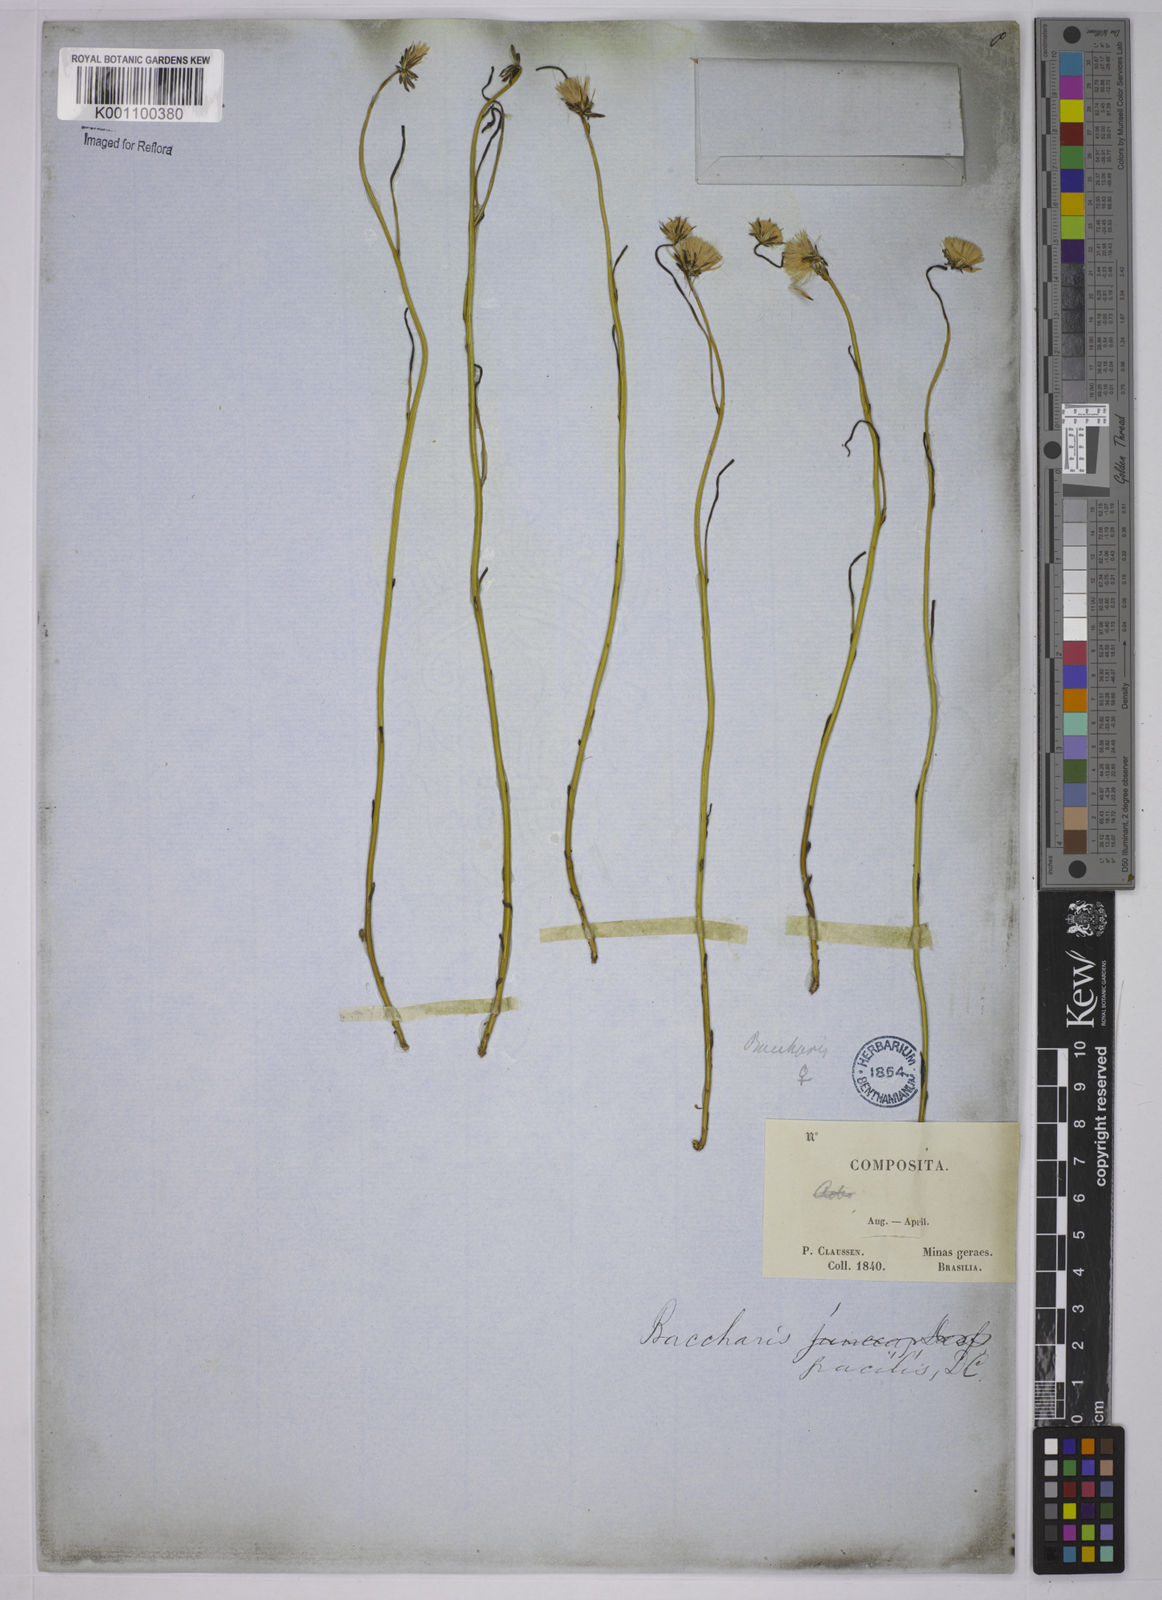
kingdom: Plantae
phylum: Tracheophyta
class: Magnoliopsida
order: Asterales
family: Asteraceae
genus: Baccharis
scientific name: Baccharis orbignyana
